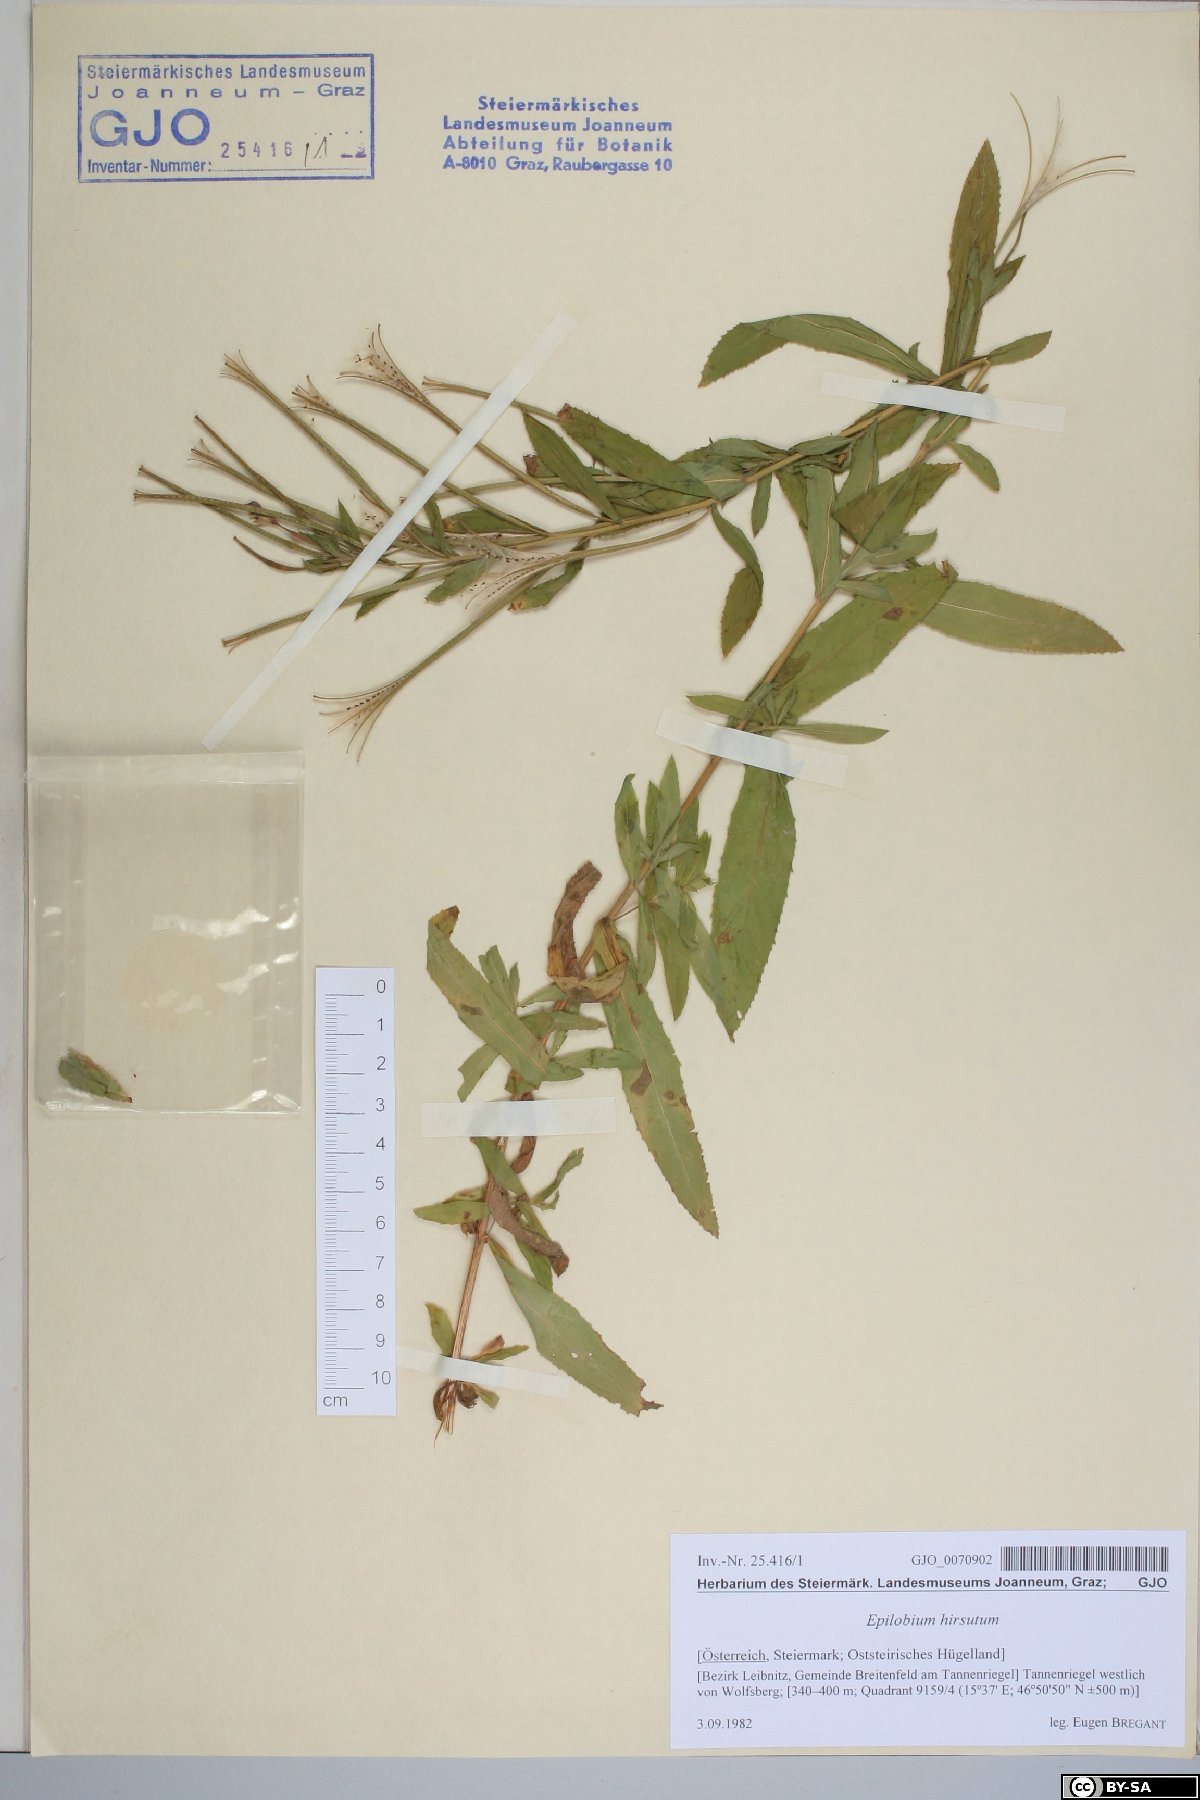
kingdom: Plantae
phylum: Tracheophyta
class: Magnoliopsida
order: Myrtales
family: Onagraceae
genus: Epilobium
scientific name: Epilobium hirsutum
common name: Great willowherb
